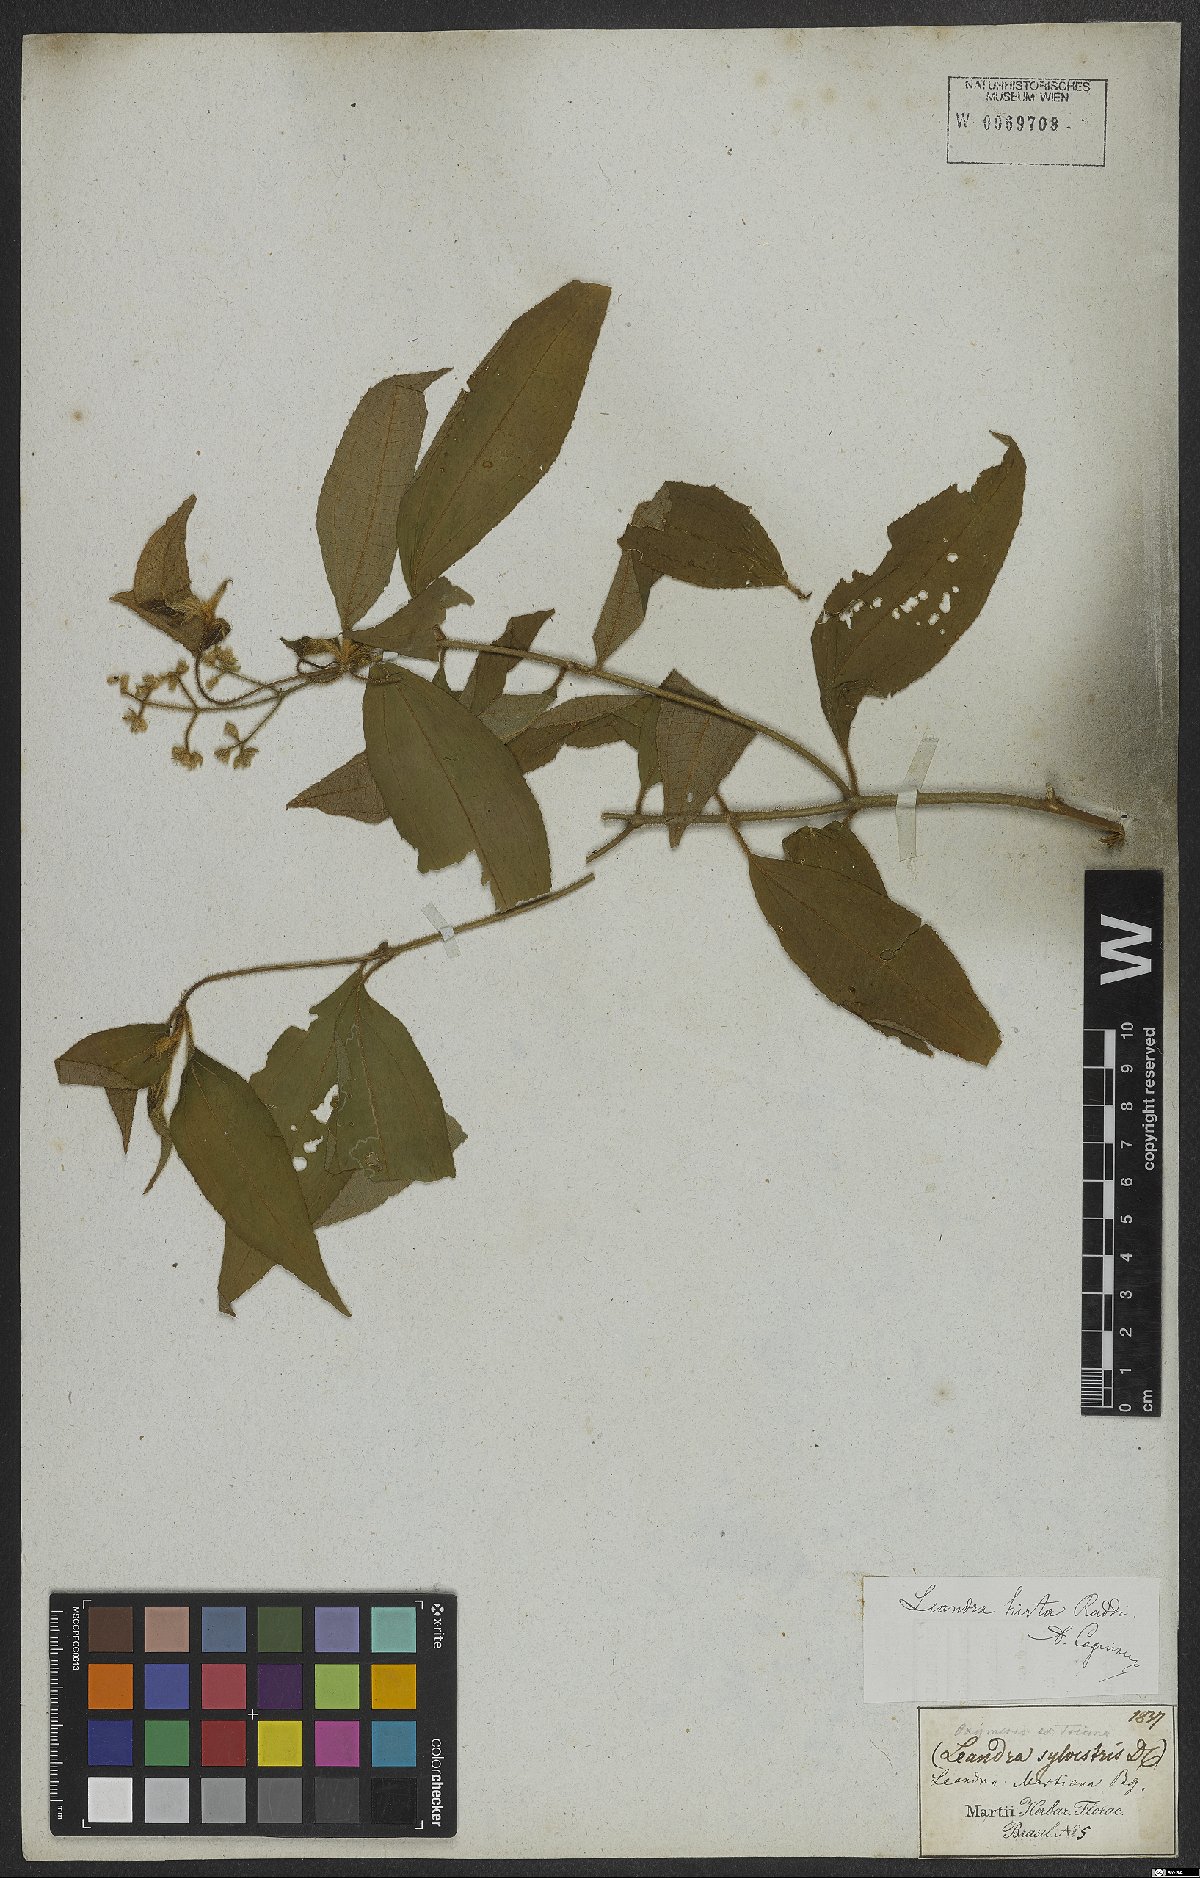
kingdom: Plantae
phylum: Tracheophyta
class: Magnoliopsida
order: Myrtales
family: Melastomataceae
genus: Miconia
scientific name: Miconia dubia
